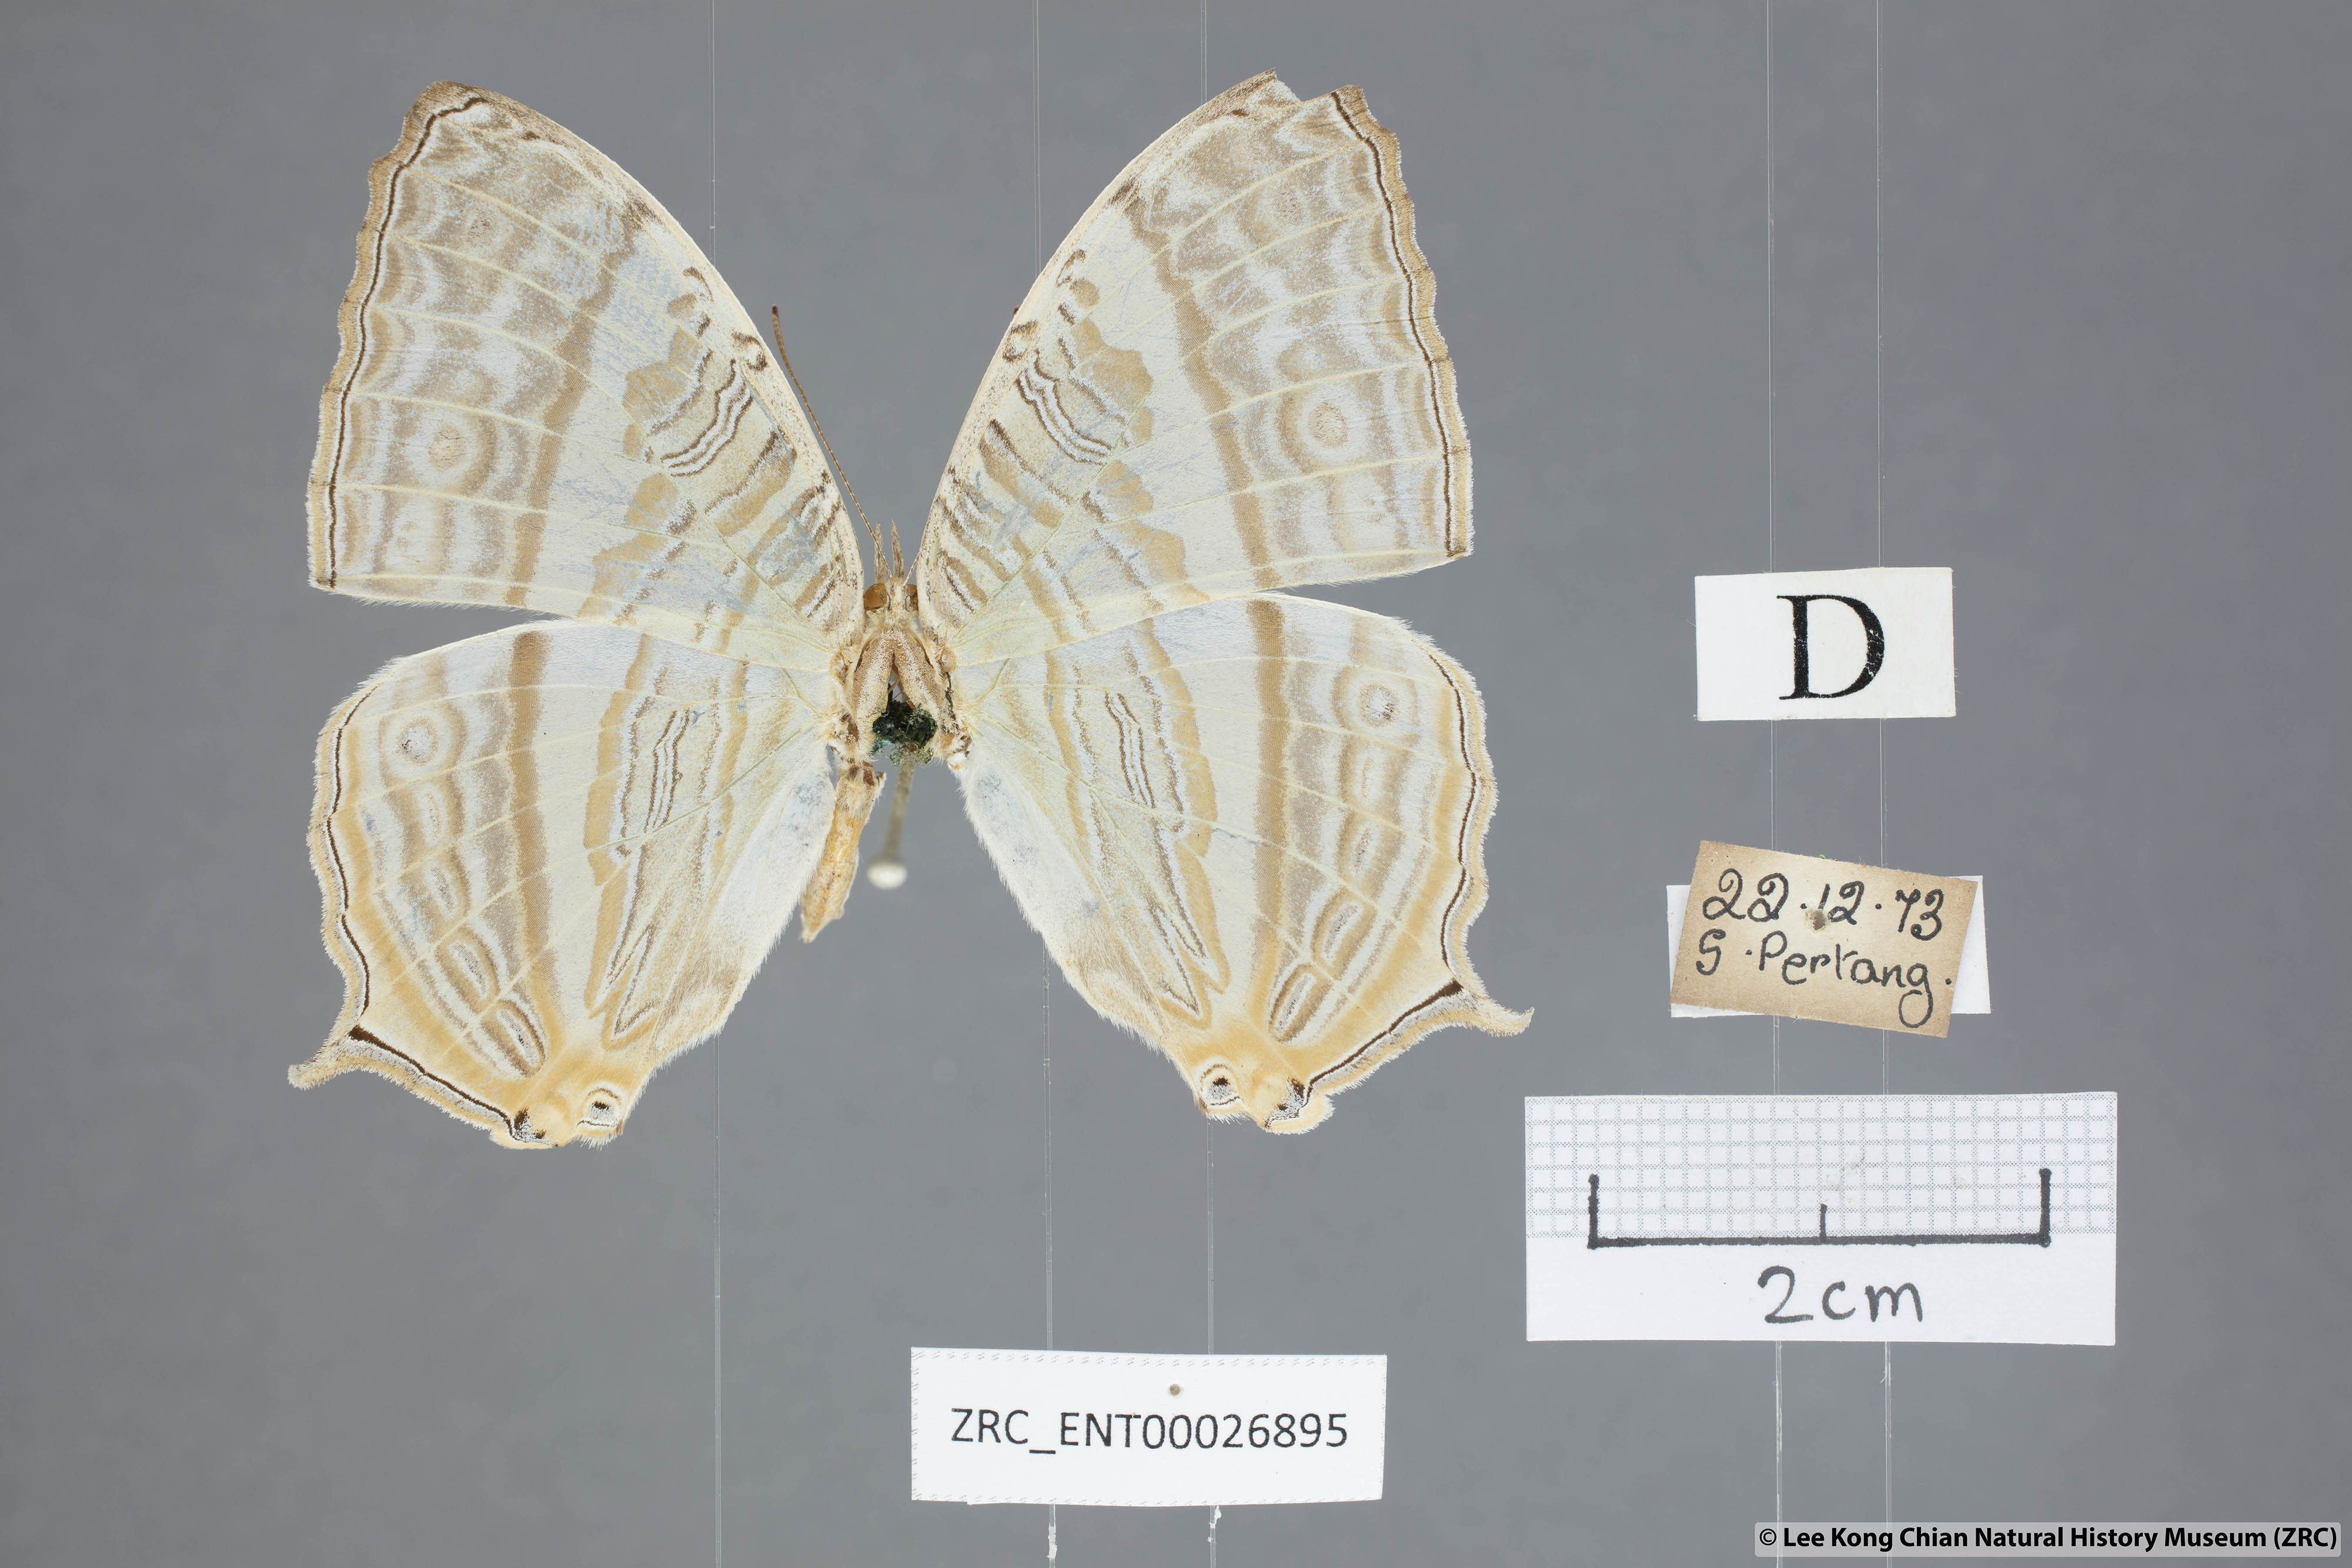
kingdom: Animalia
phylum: Arthropoda
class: Insecta
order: Lepidoptera
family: Nymphalidae
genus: Cyrestis
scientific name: Cyrestis cocles
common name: Marbled map
